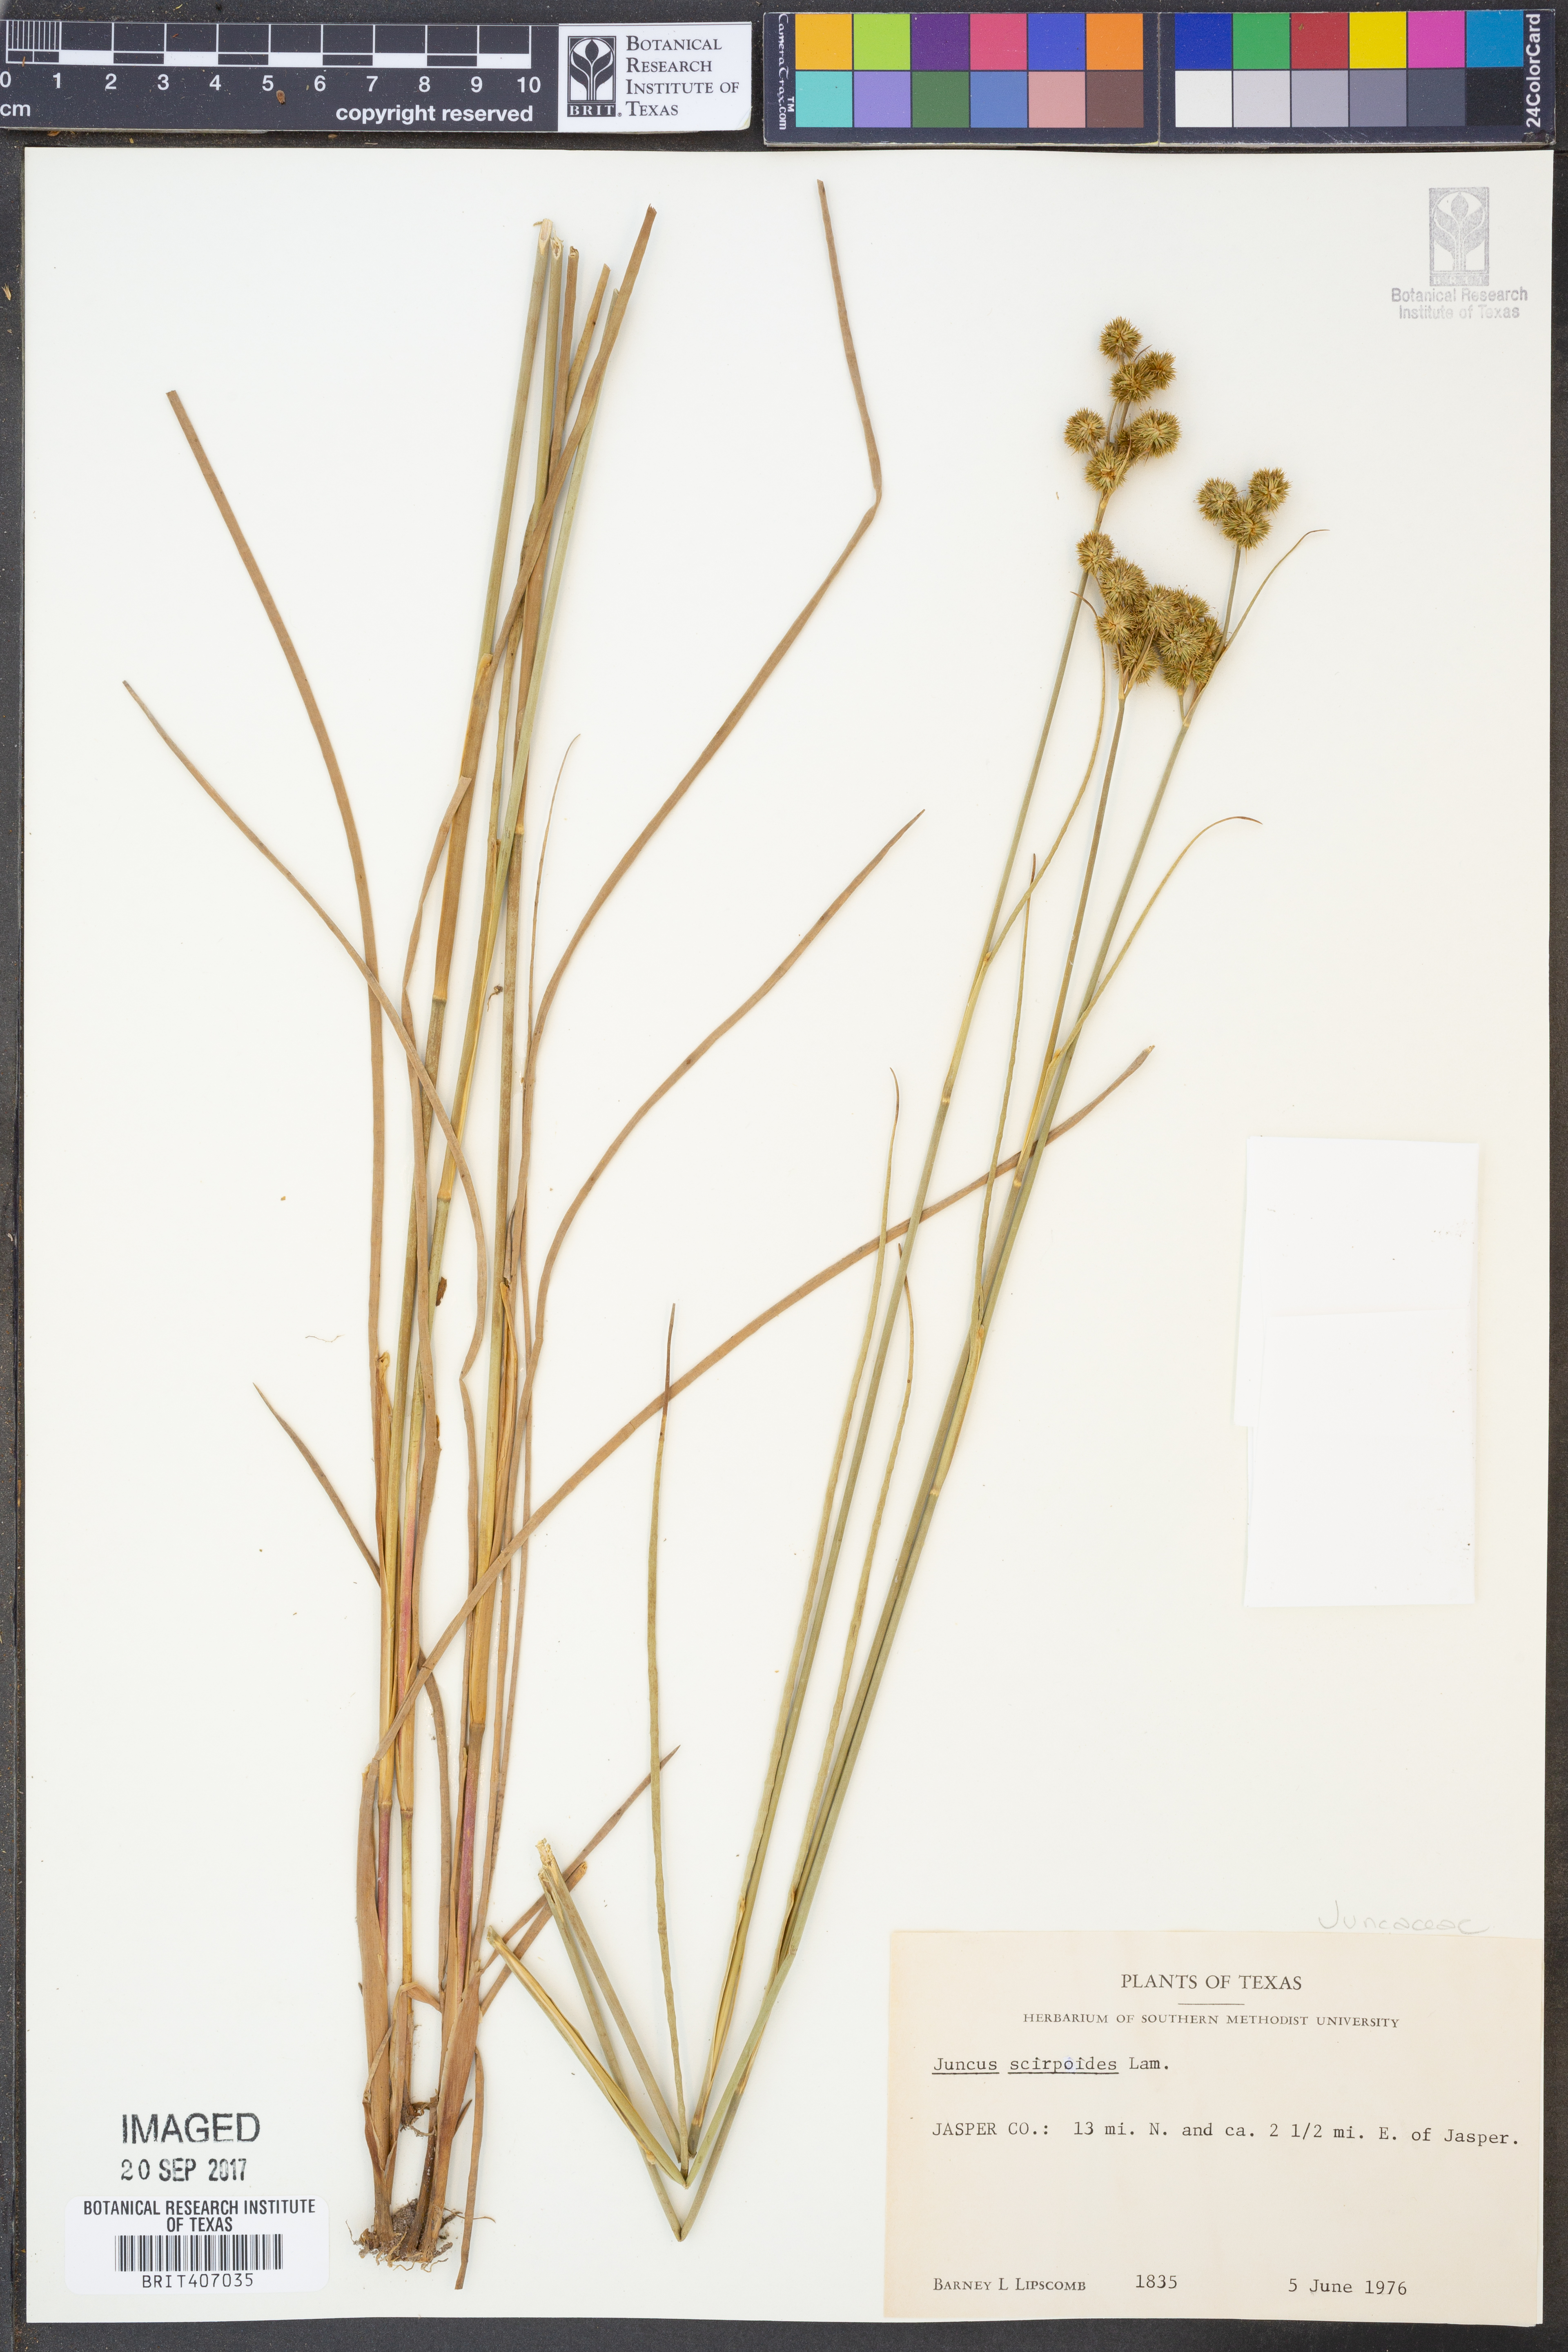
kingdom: Plantae
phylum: Tracheophyta
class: Liliopsida
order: Poales
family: Juncaceae
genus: Juncus
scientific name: Juncus scirpoides
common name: Needlepod rush
